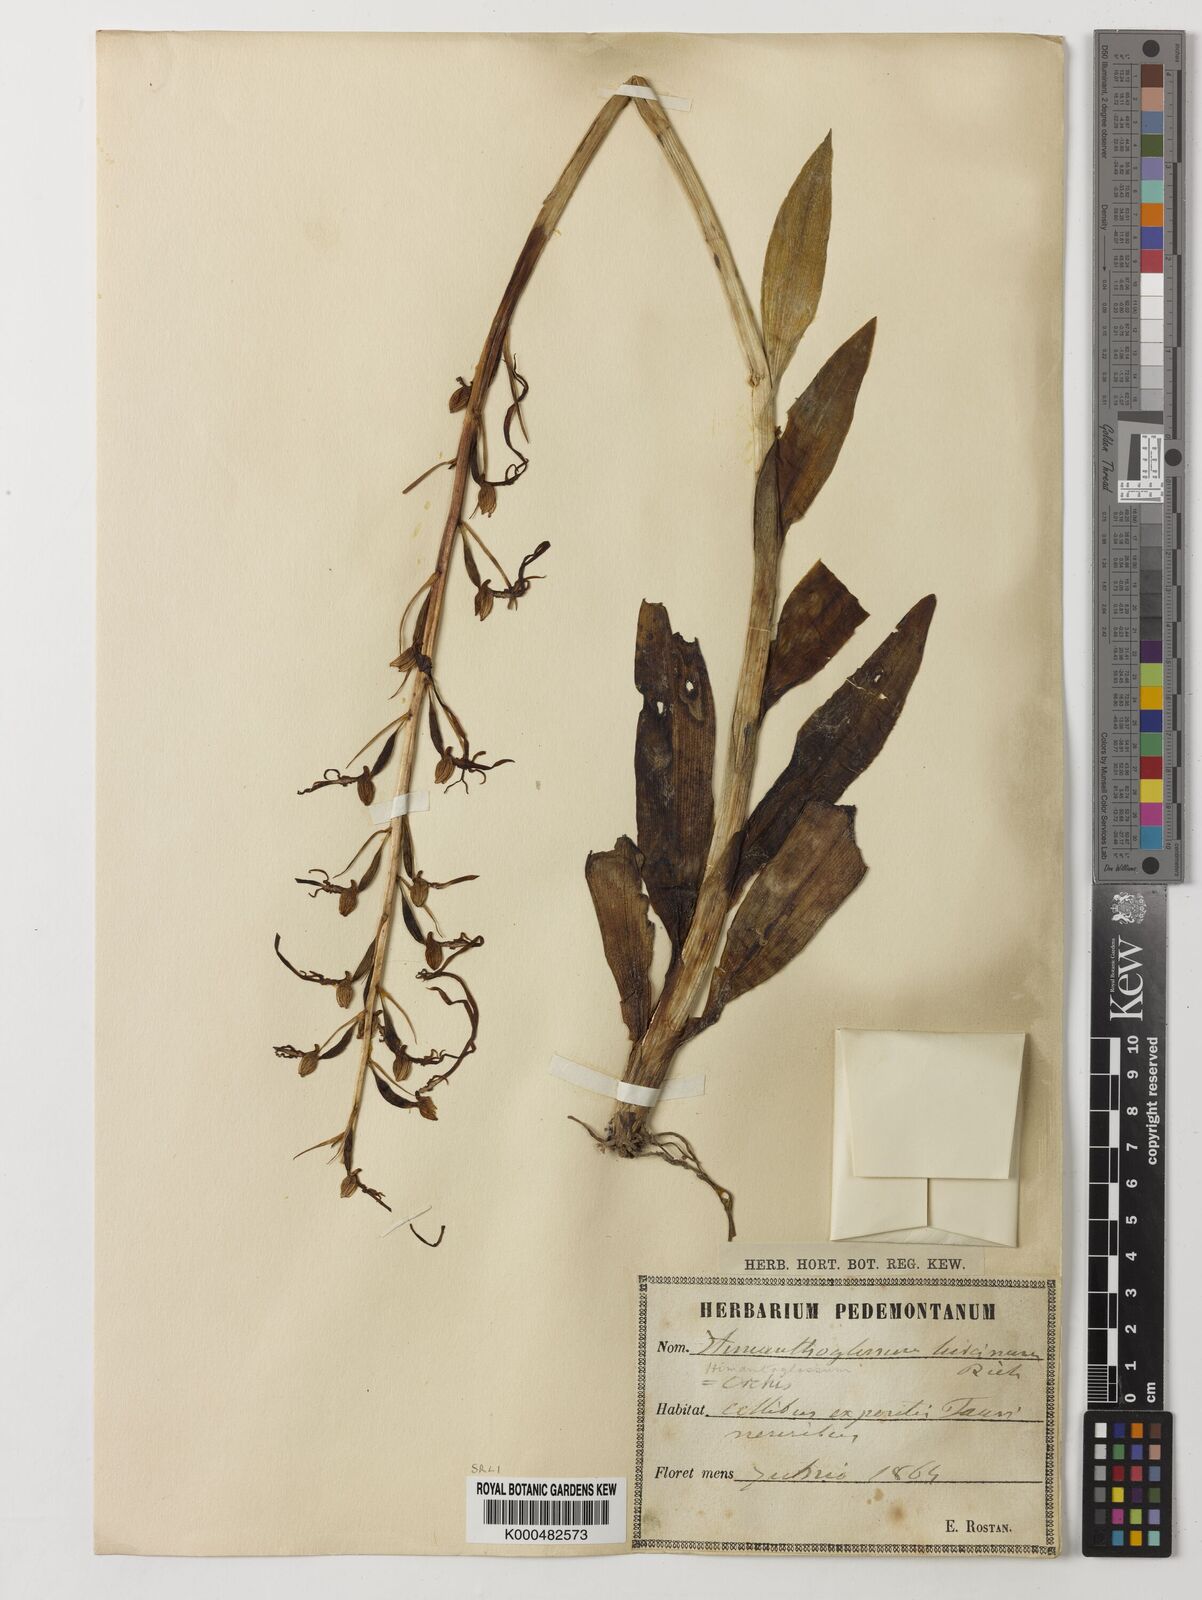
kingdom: Plantae
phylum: Tracheophyta
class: Liliopsida
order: Asparagales
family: Orchidaceae
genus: Himantoglossum
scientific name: Himantoglossum adriaticum
